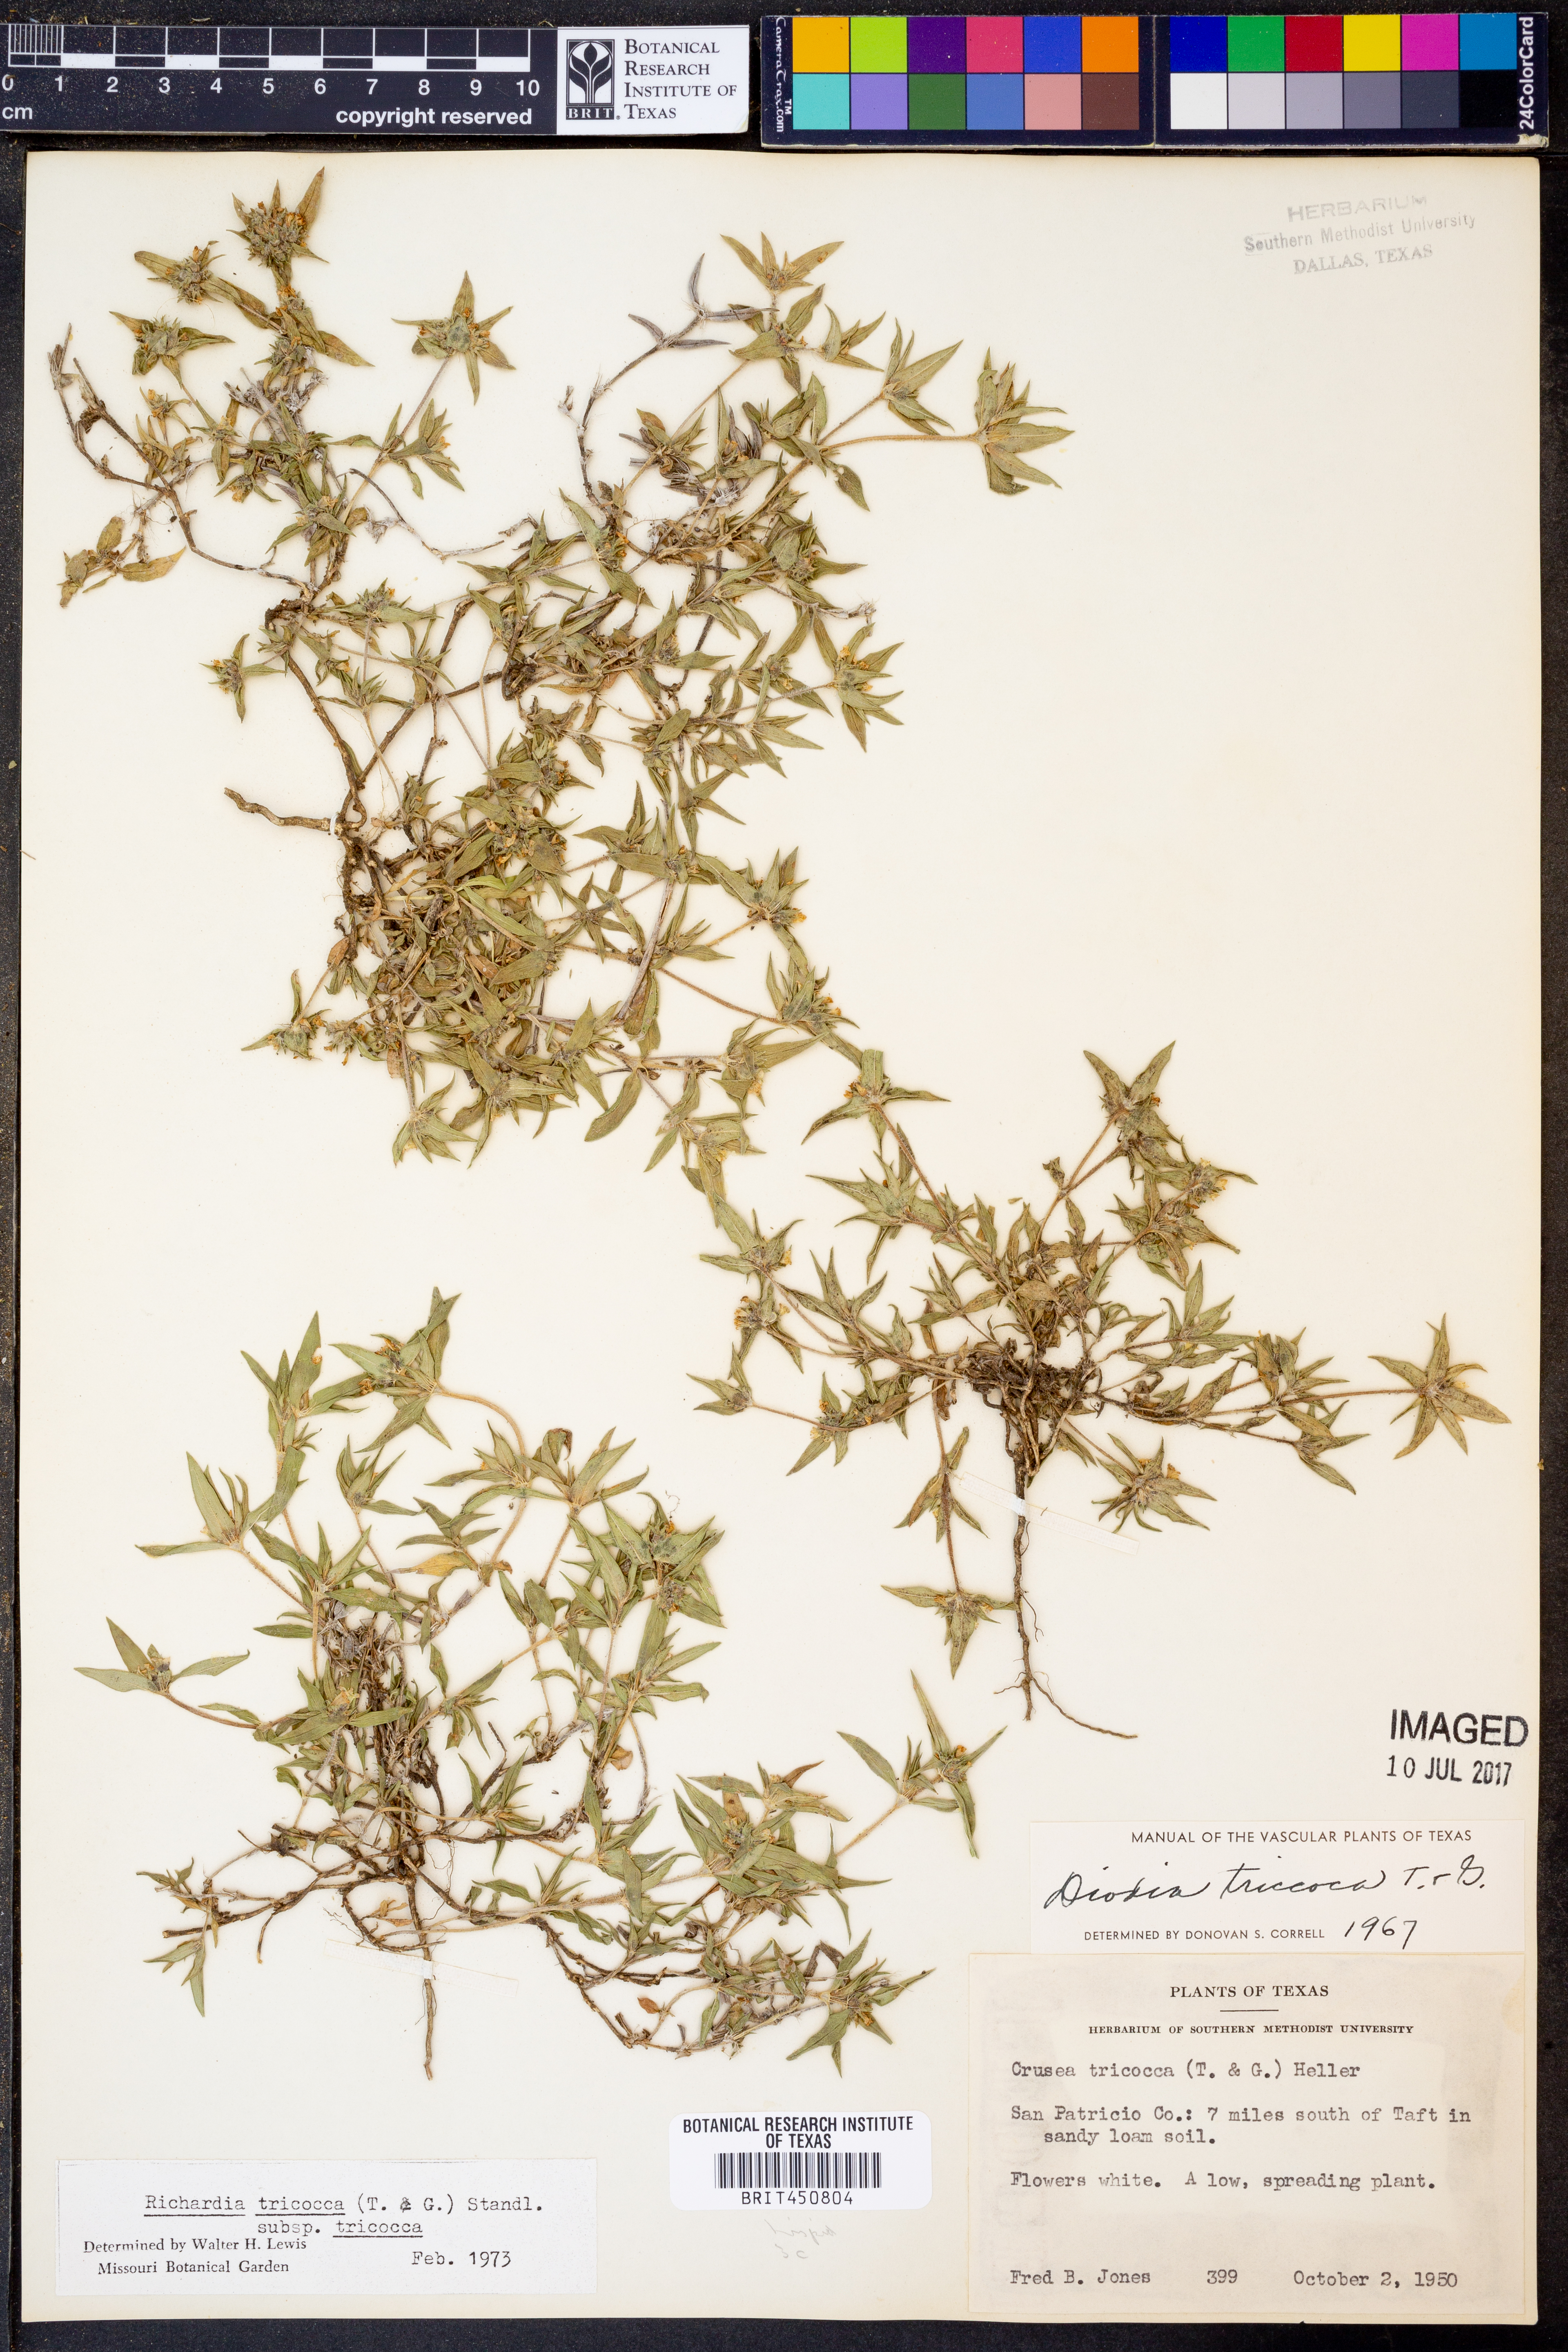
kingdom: Plantae
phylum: Tracheophyta
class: Magnoliopsida
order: Gentianales
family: Rubiaceae
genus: Richardia
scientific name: Richardia tricocca
